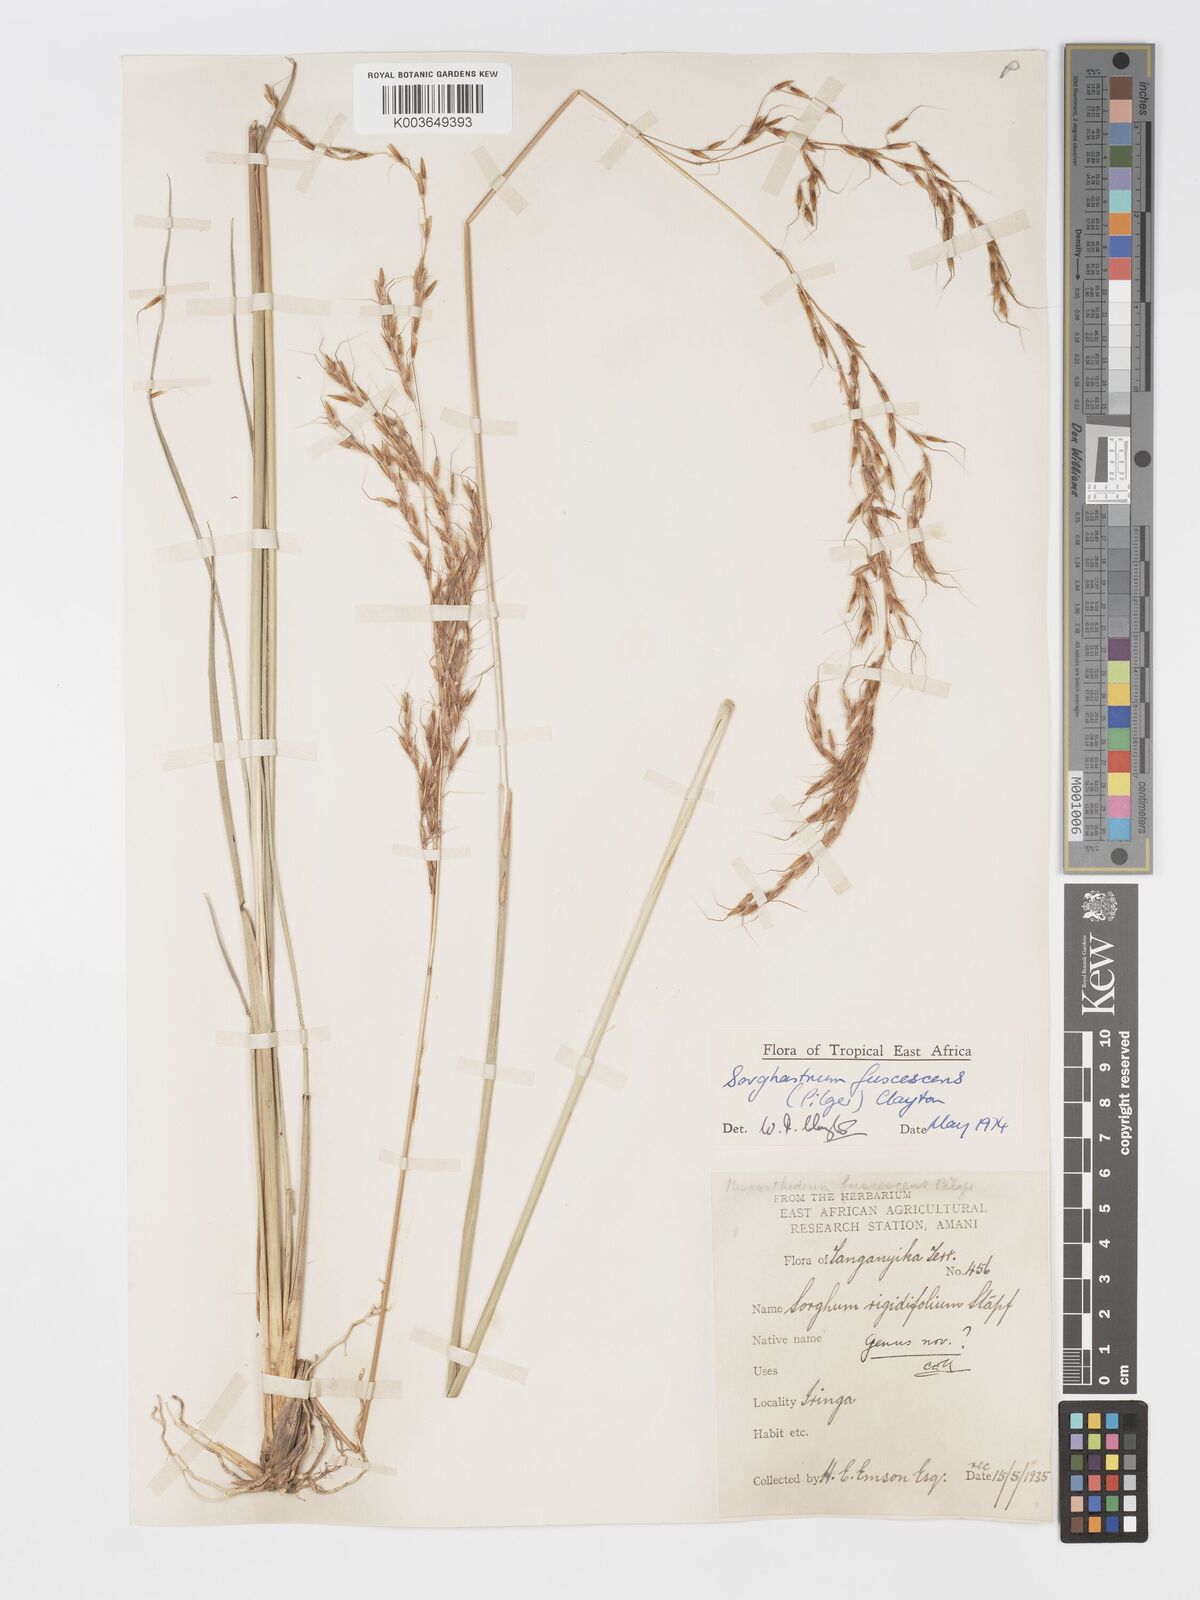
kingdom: Plantae
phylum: Tracheophyta
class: Liliopsida
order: Poales
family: Poaceae
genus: Sorghastrum
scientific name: Sorghastrum fuscescens
